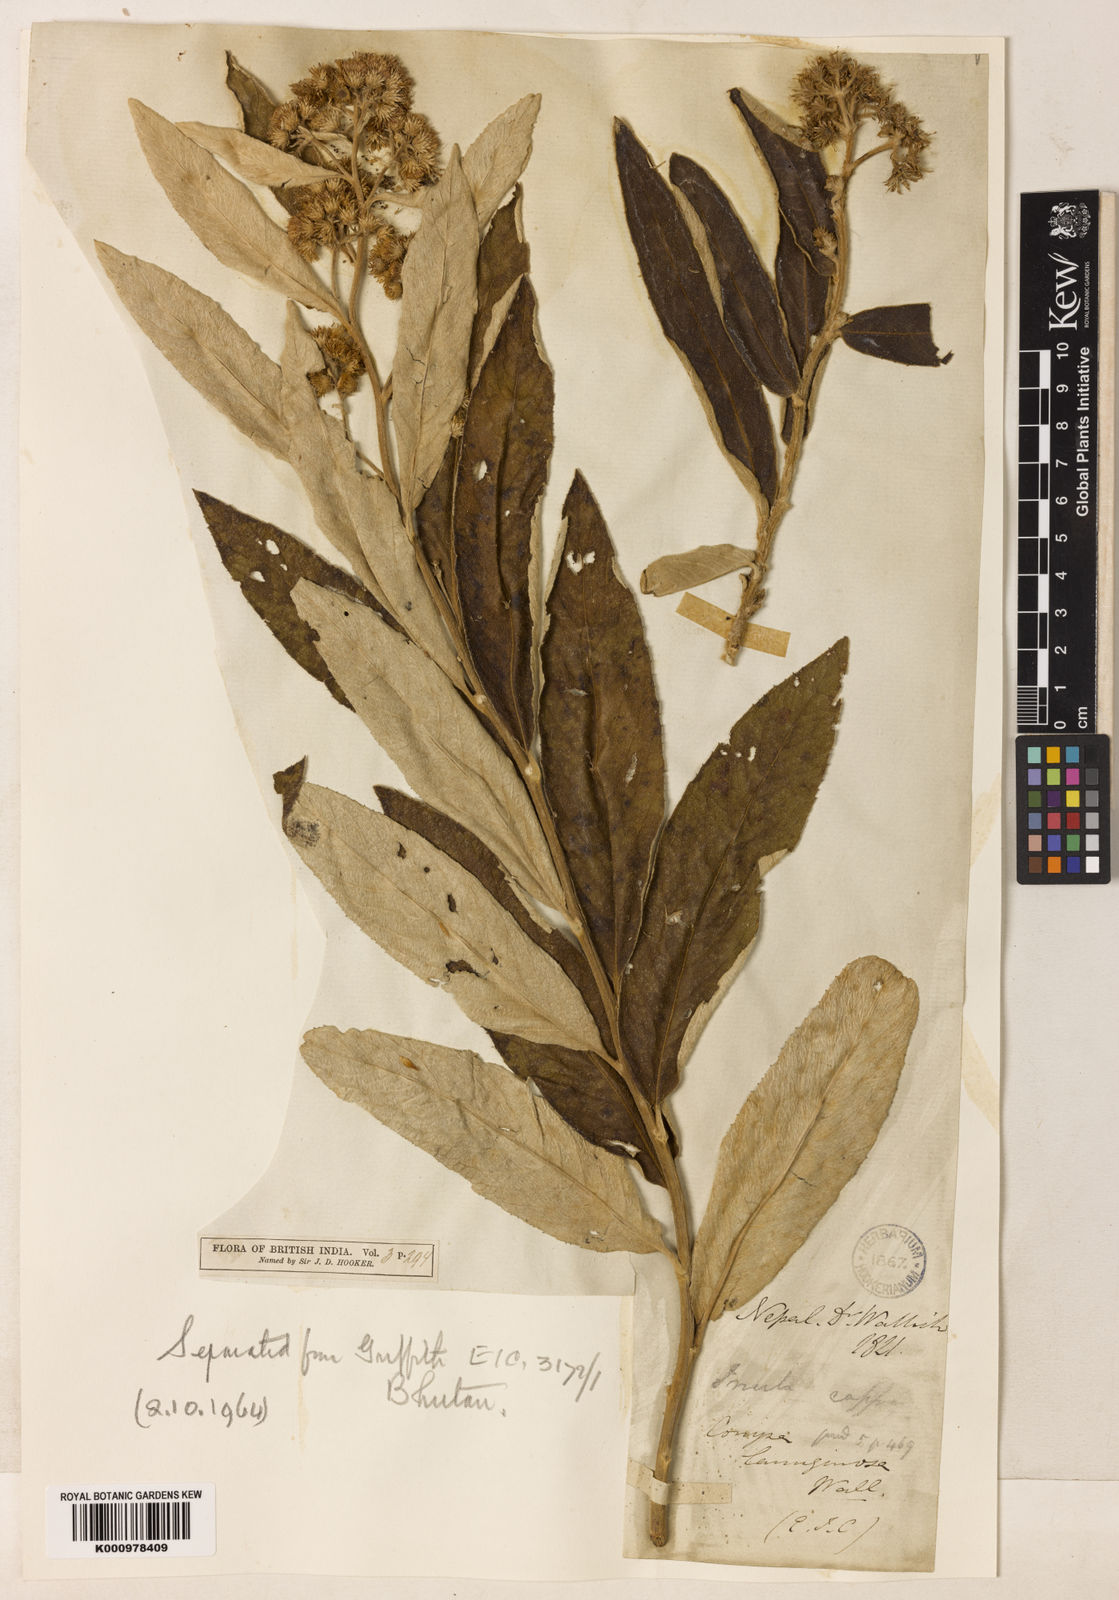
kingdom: Plantae
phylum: Tracheophyta
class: Magnoliopsida
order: Asterales
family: Asteraceae
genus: Duhaldea
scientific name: Duhaldea cappa
